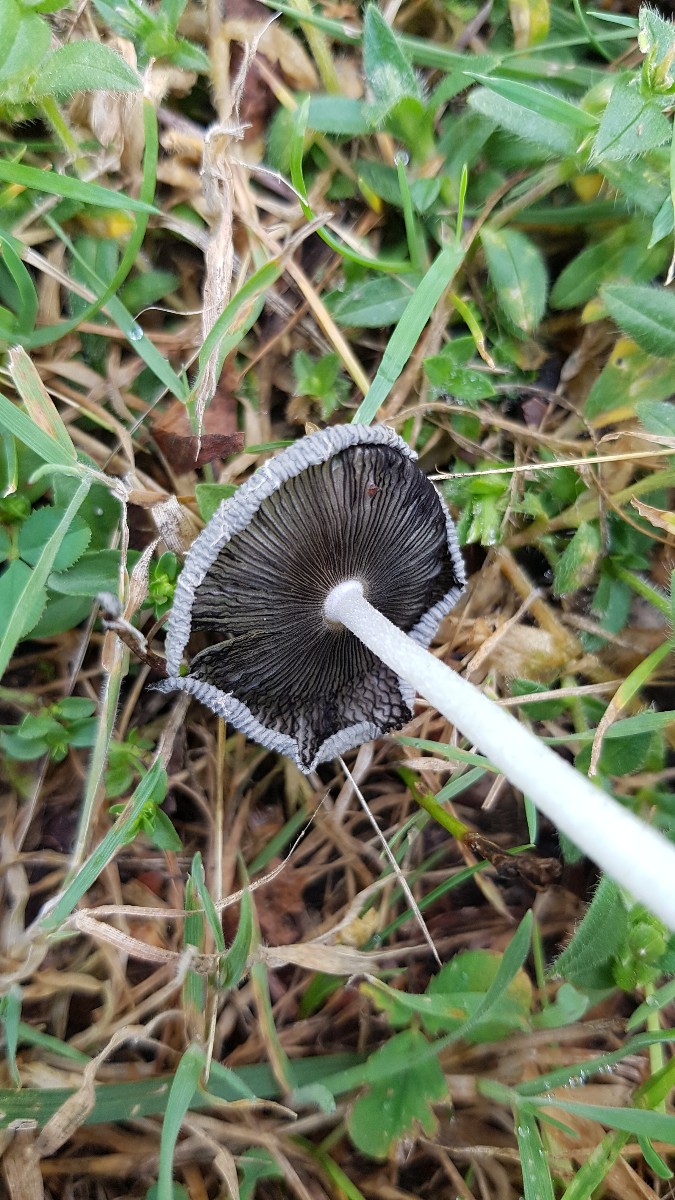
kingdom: Fungi
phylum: Basidiomycota
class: Agaricomycetes
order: Agaricales
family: Psathyrellaceae
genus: Coprinopsis
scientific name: Coprinopsis lagopus
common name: dunstokket blækhat
